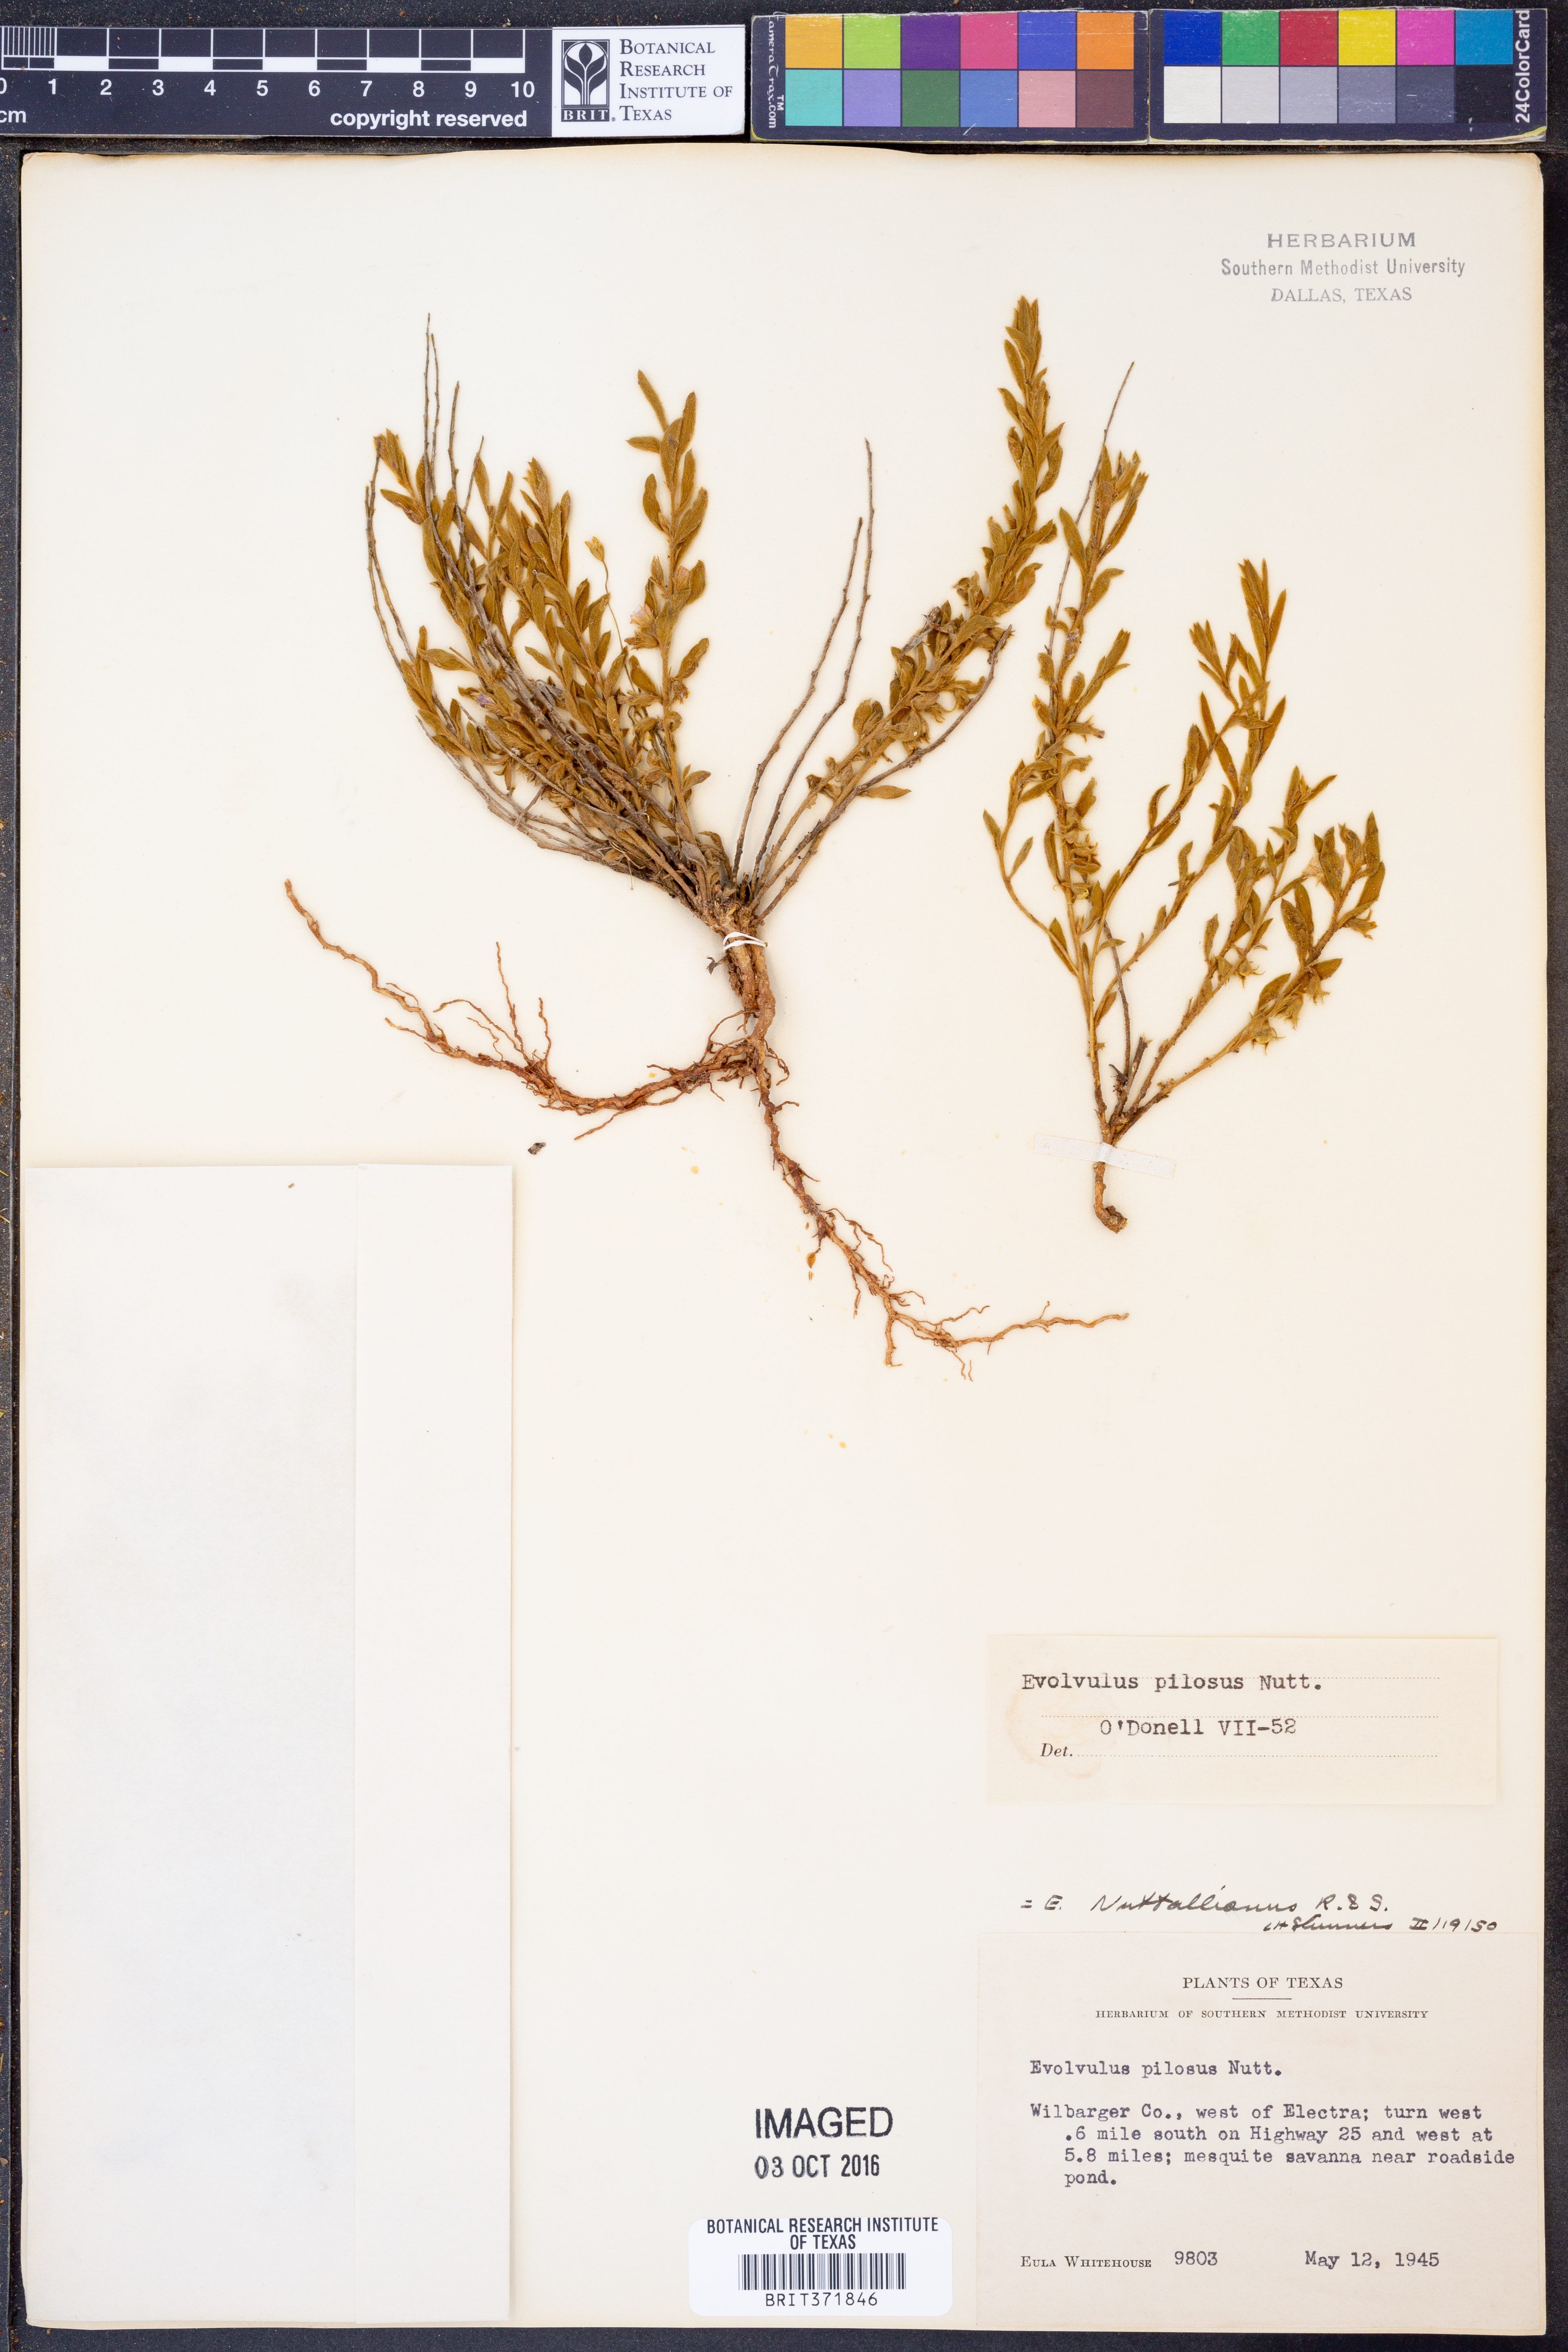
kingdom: Plantae
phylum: Tracheophyta
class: Magnoliopsida
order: Solanales
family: Convolvulaceae
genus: Evolvulus
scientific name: Evolvulus nuttallianus
